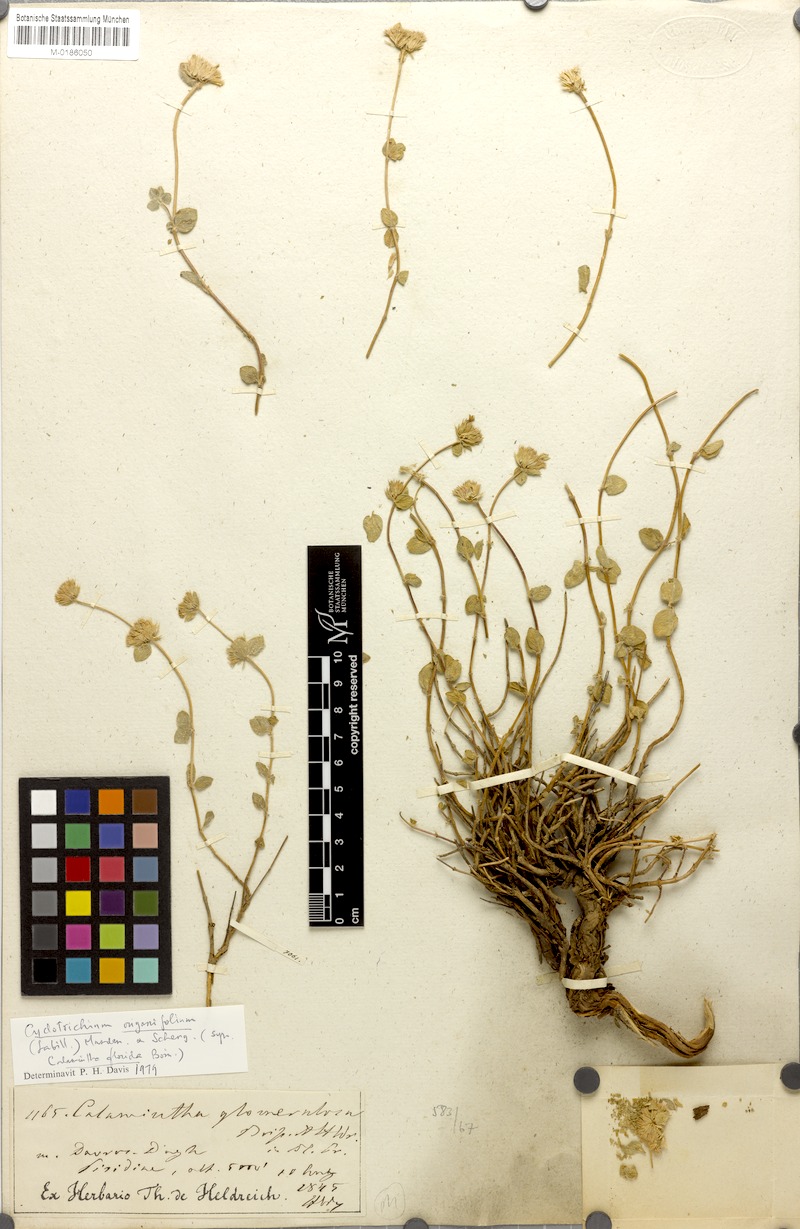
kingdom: Plantae
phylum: Tracheophyta
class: Magnoliopsida
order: Lamiales
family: Lamiaceae
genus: Cyclotrichium
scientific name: Cyclotrichium origanifolium
